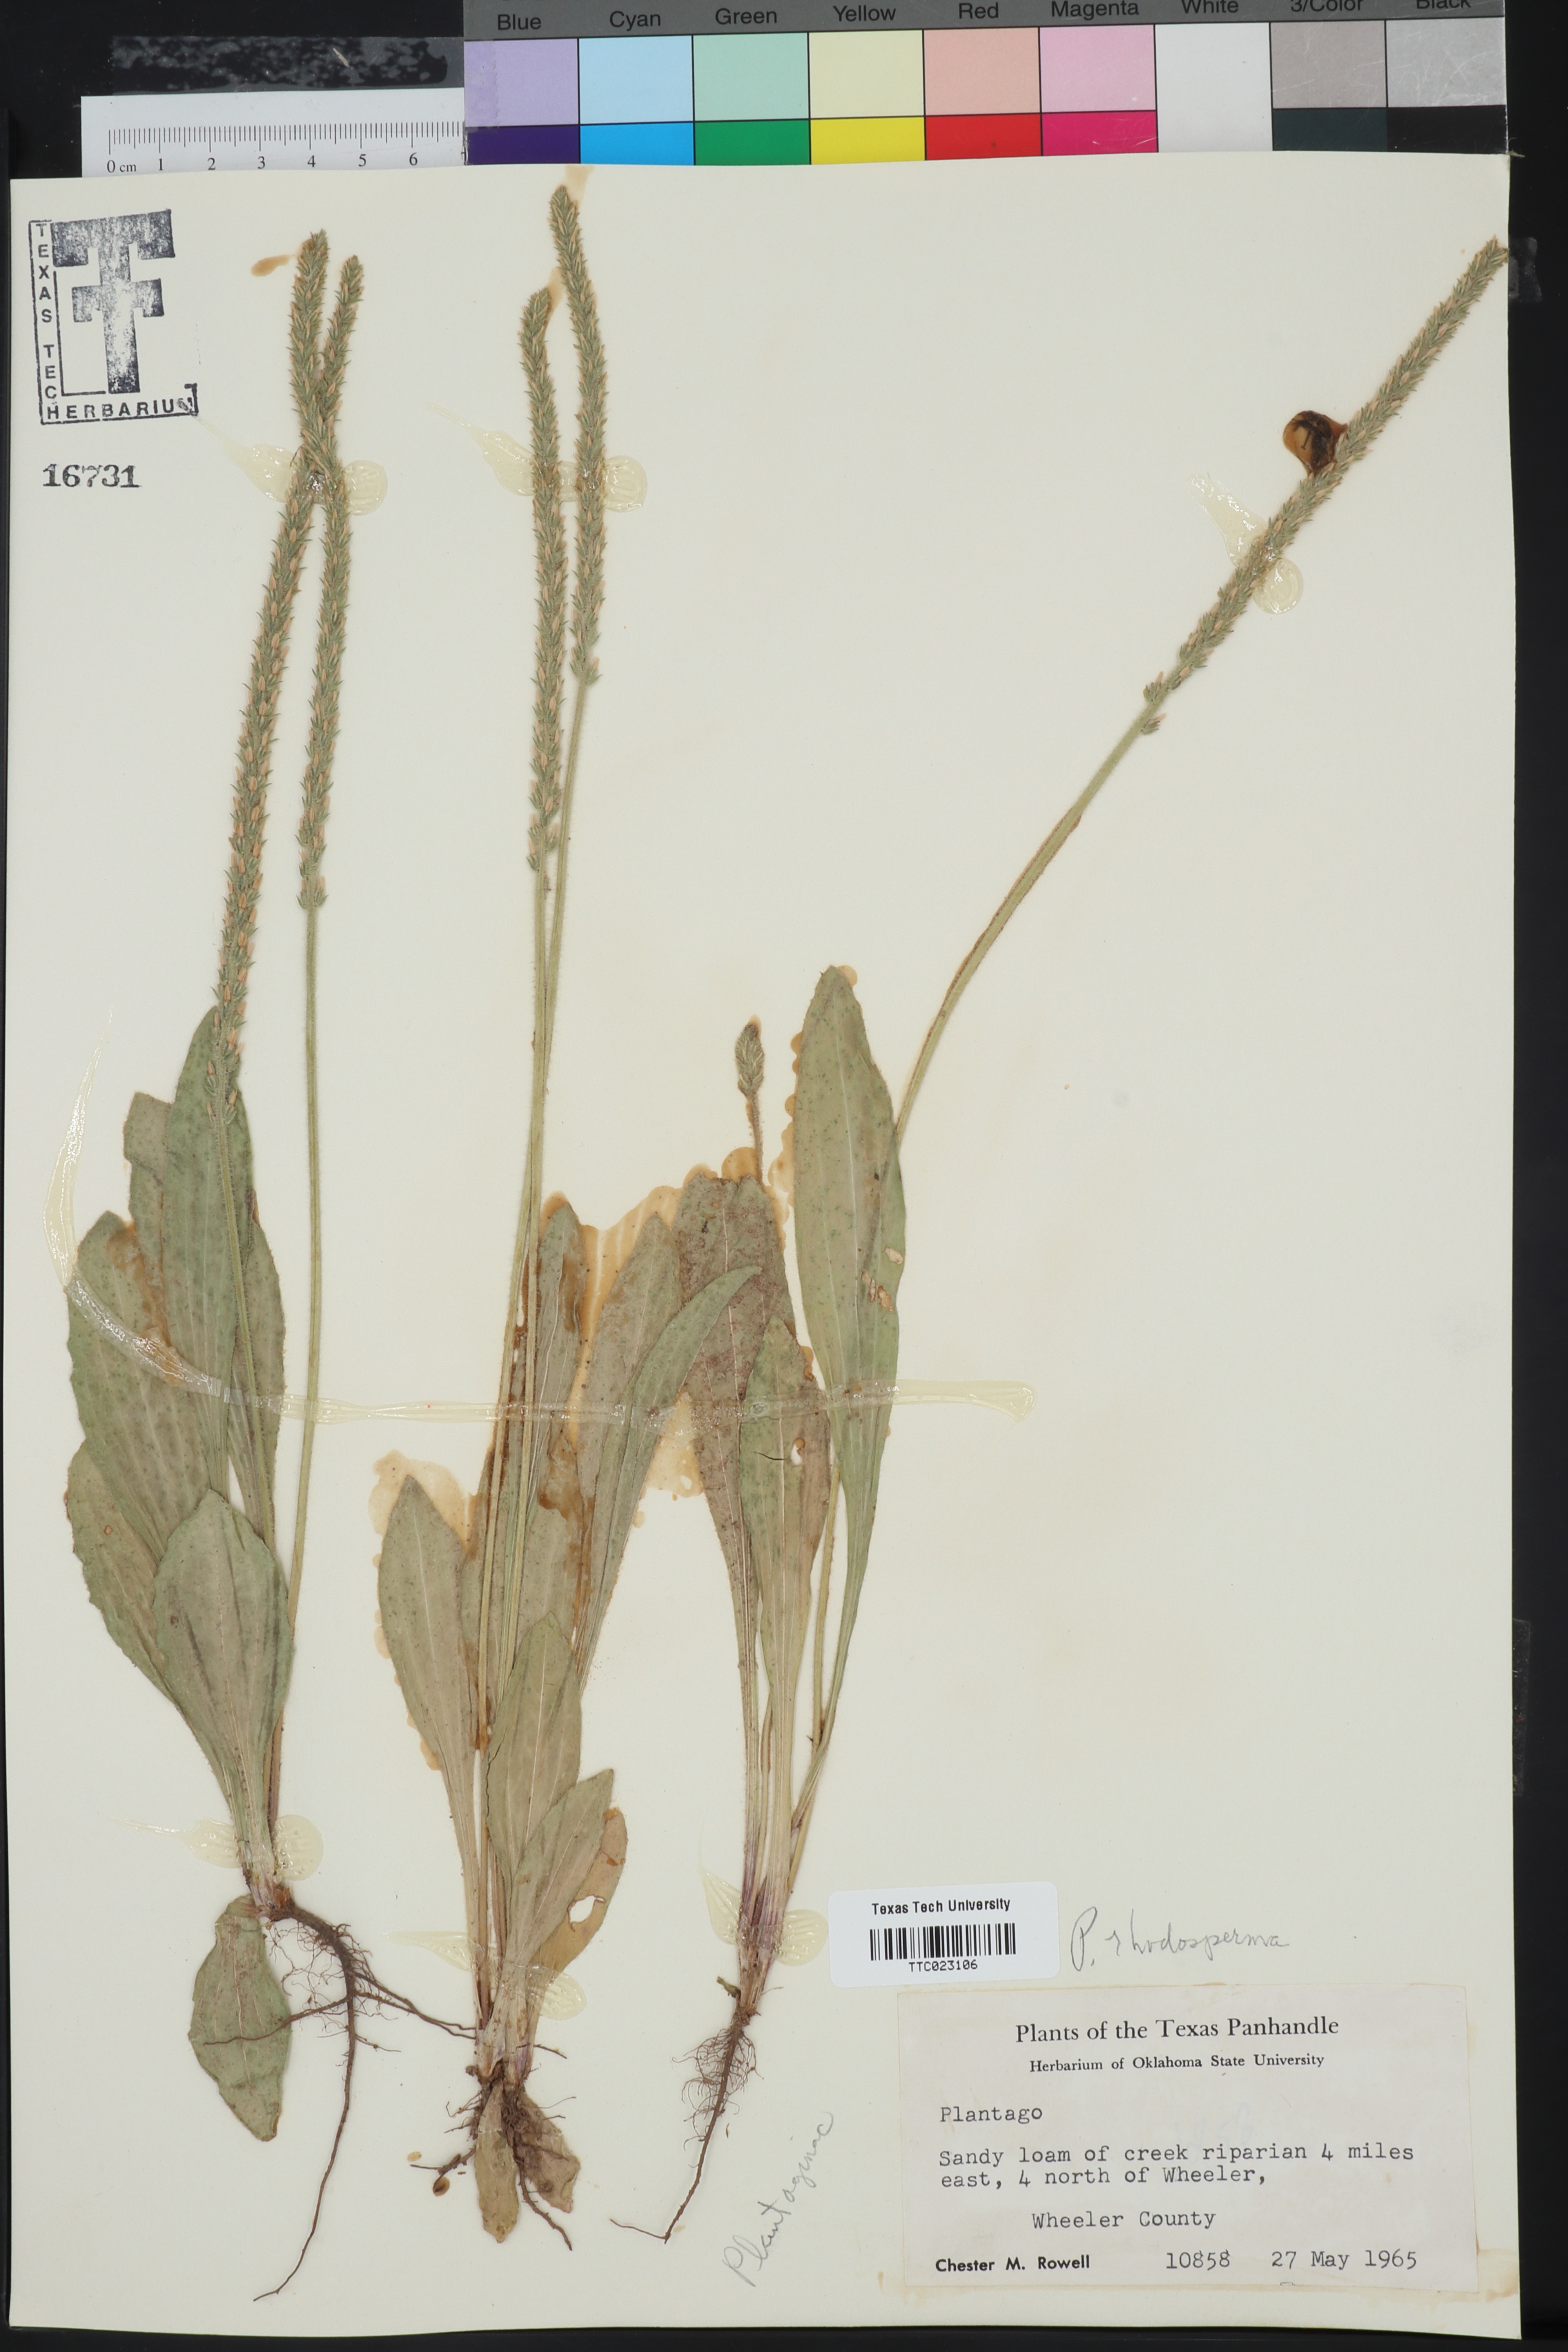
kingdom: Plantae
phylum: Tracheophyta
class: Magnoliopsida
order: Lamiales
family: Plantaginaceae
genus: Plantago
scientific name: Plantago rhodosperma
